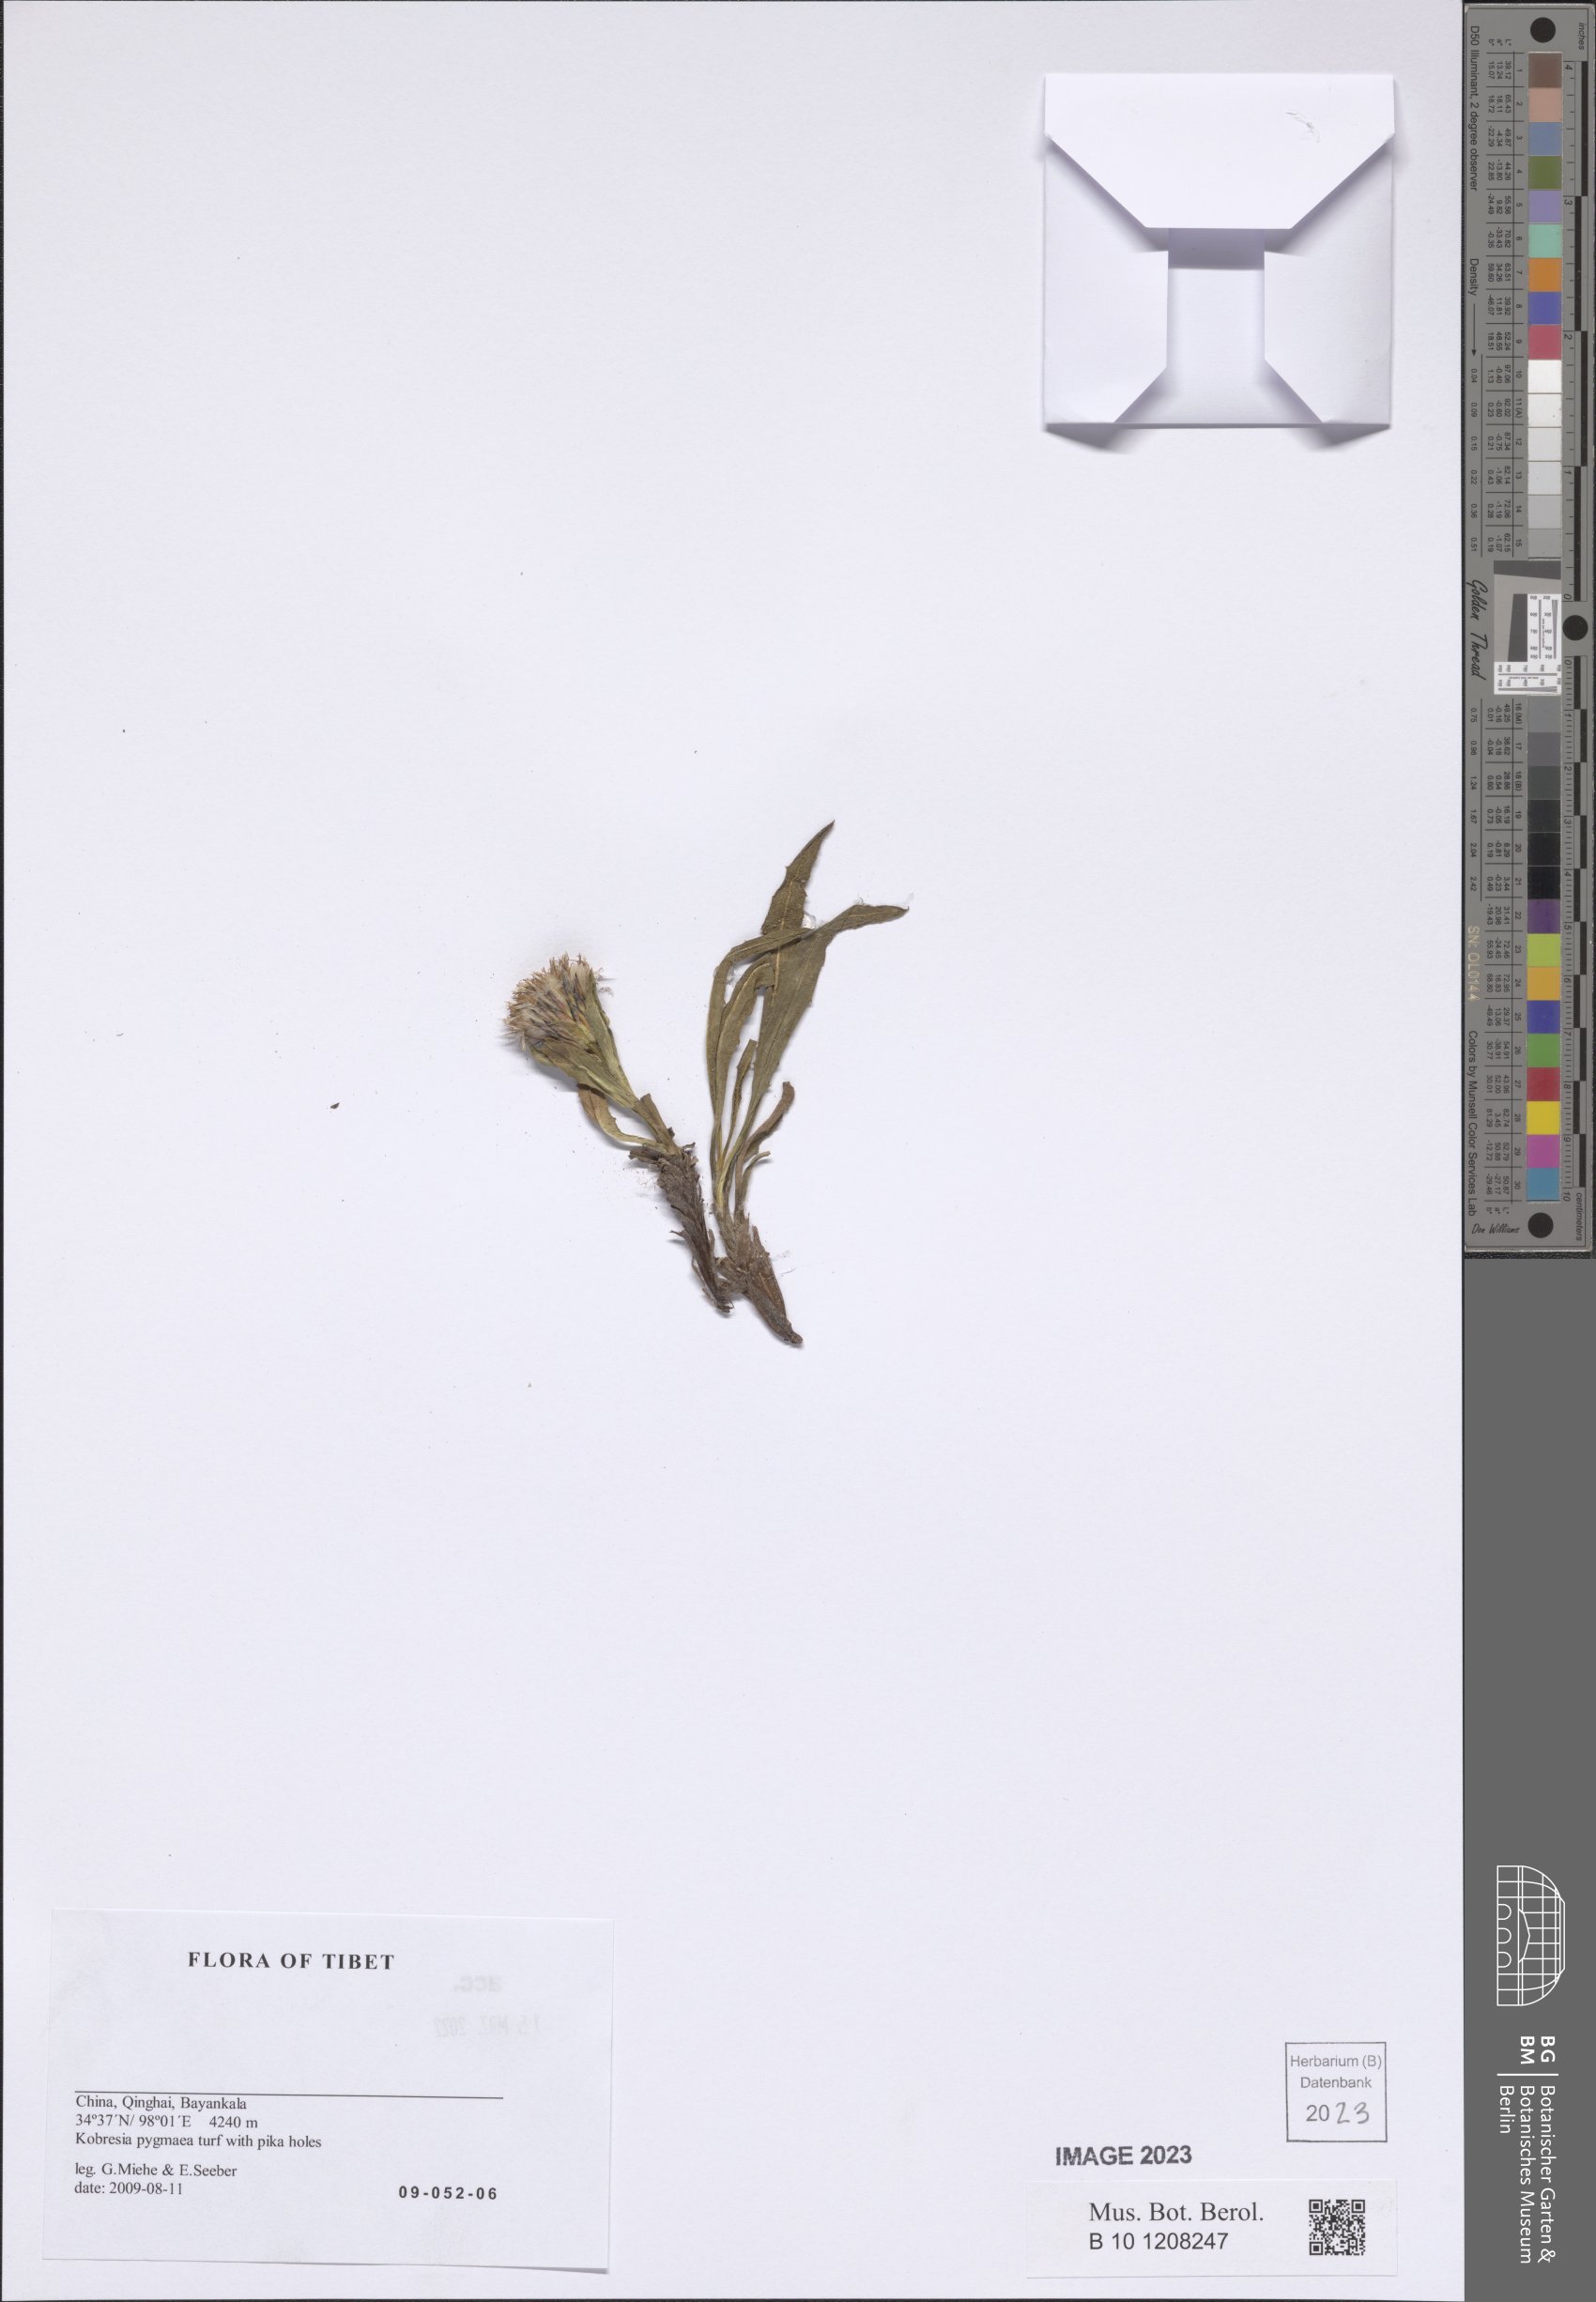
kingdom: Plantae
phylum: Tracheophyta
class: Magnoliopsida
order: Asterales
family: Asteraceae
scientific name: Asteraceae
